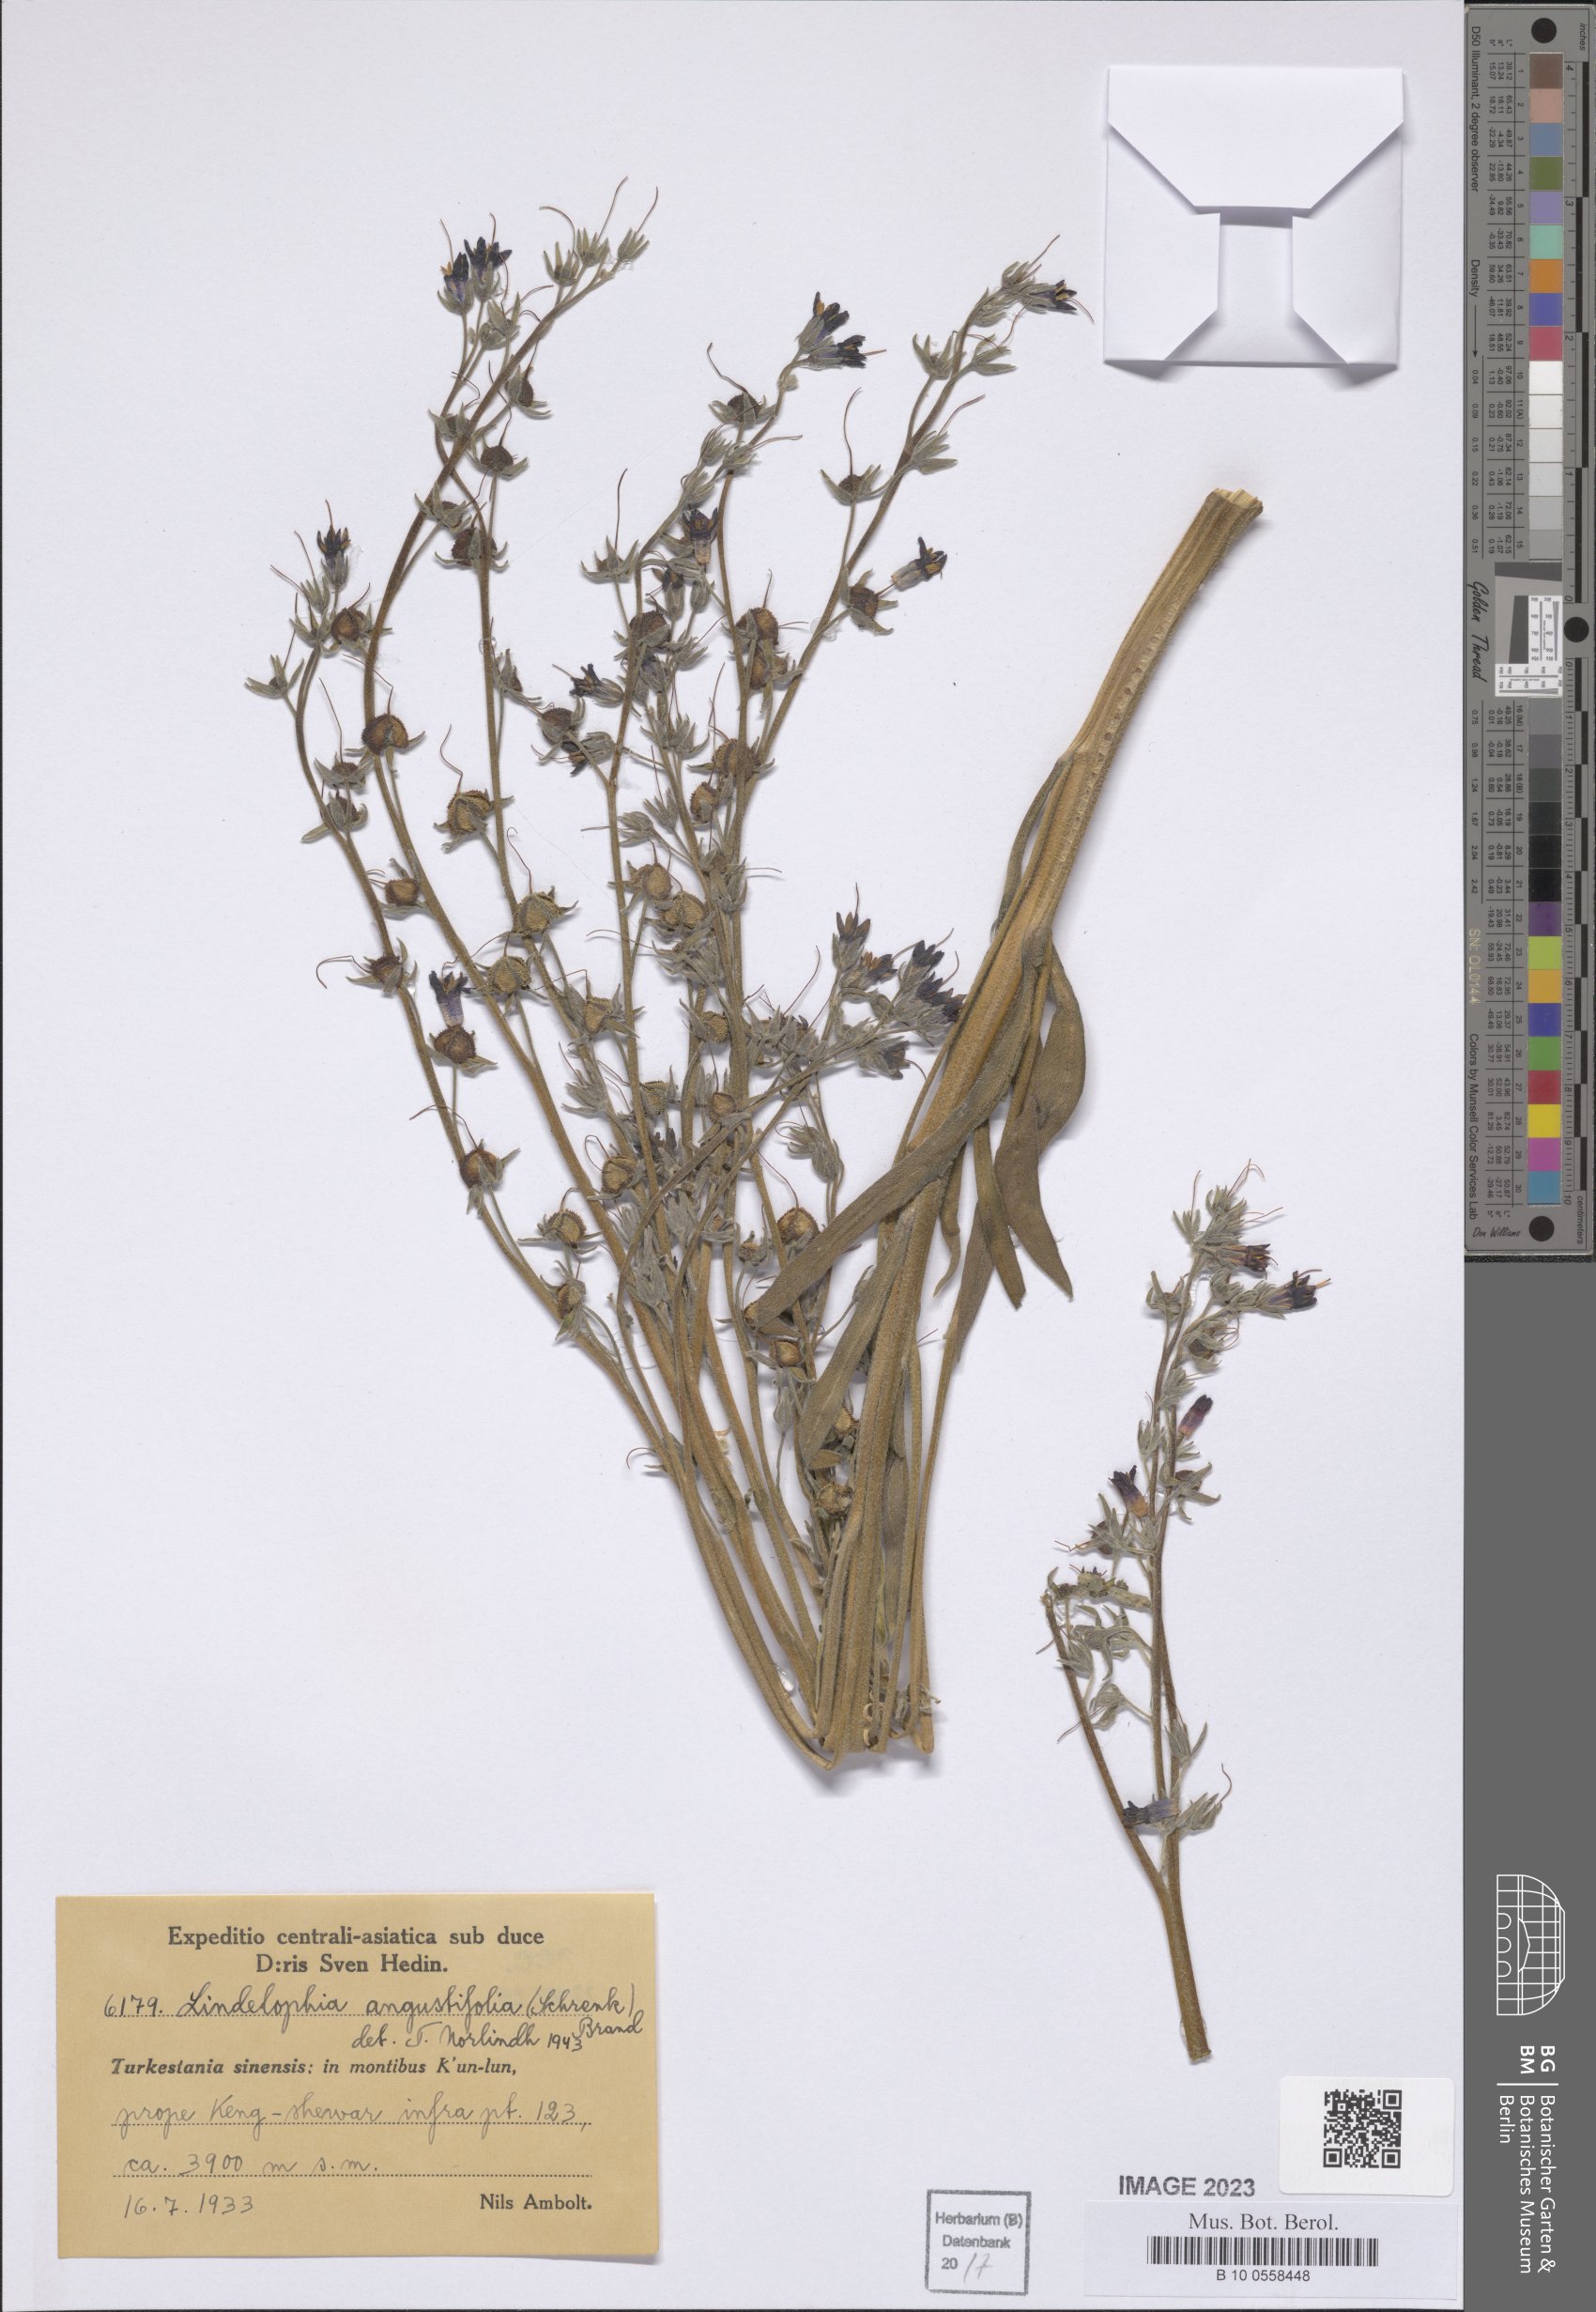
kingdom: Plantae
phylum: Tracheophyta
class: Magnoliopsida
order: Boraginales
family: Boraginaceae
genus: Lindelofia
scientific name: Lindelofia stylosa
